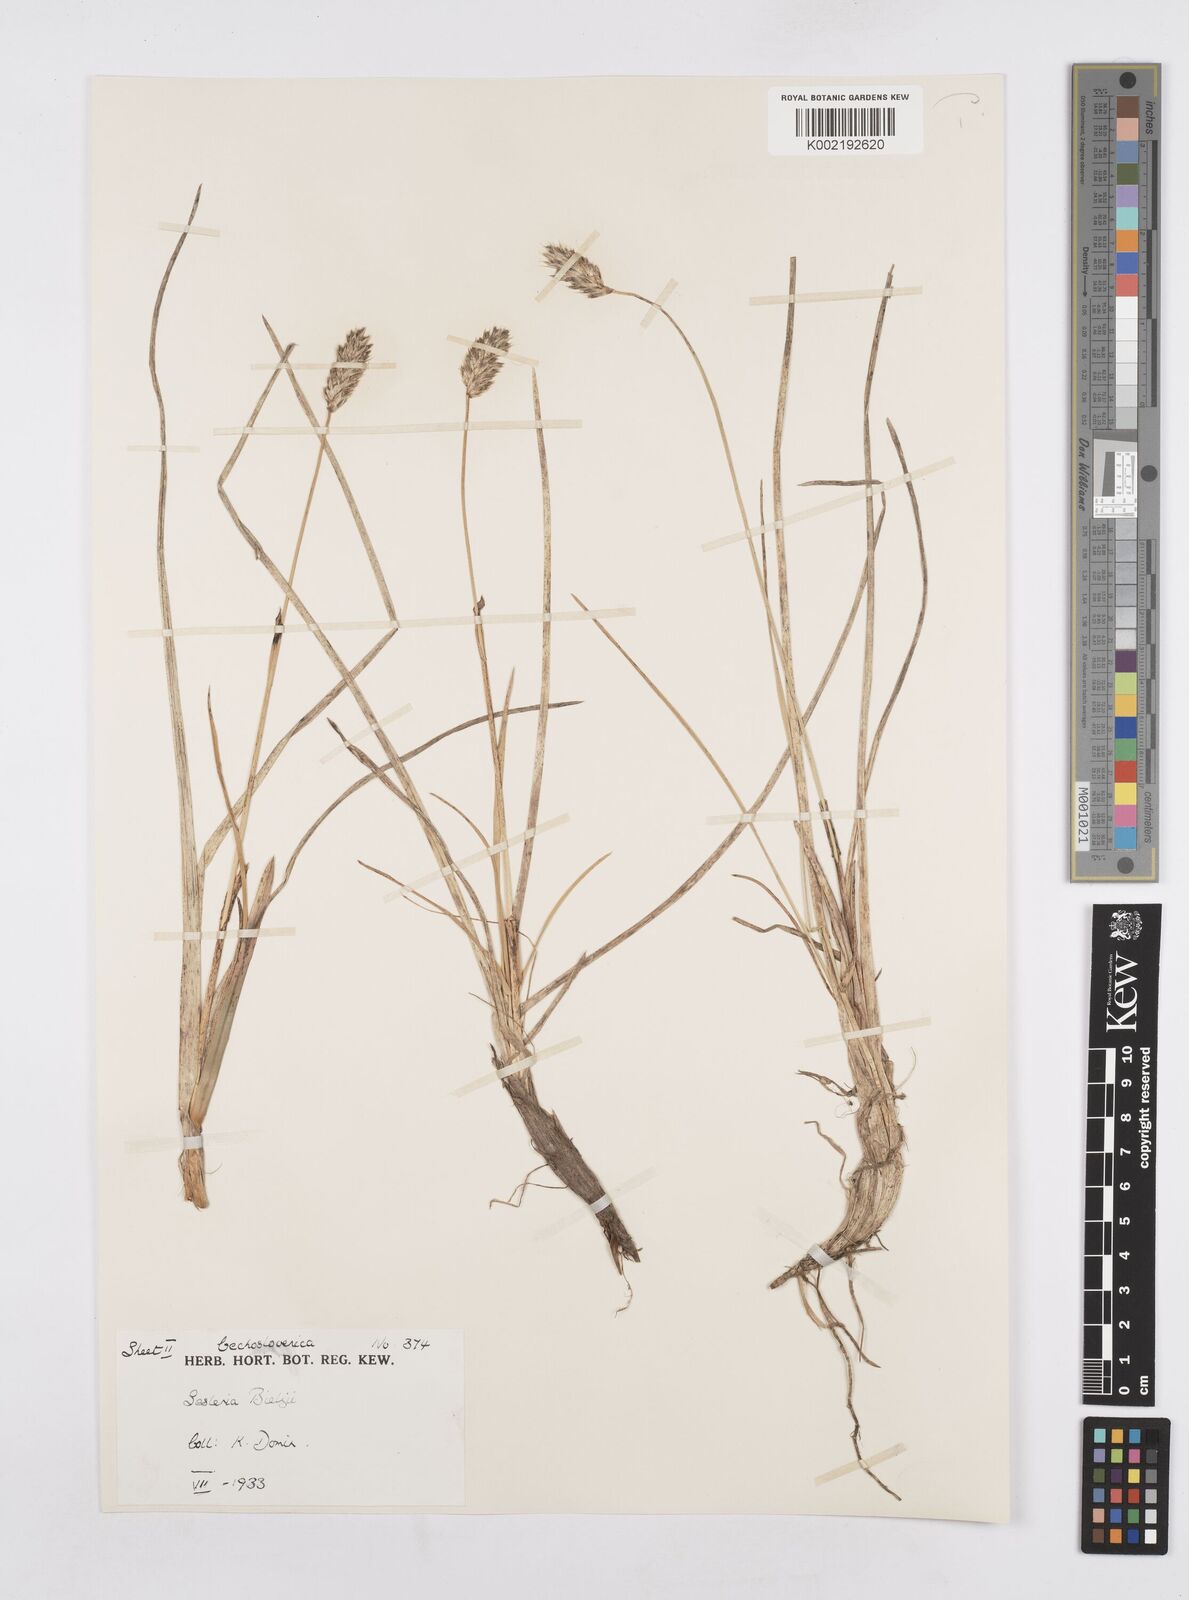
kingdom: Plantae
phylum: Tracheophyta
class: Liliopsida
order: Poales
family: Poaceae
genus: Sesleria
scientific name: Sesleria bielzii
